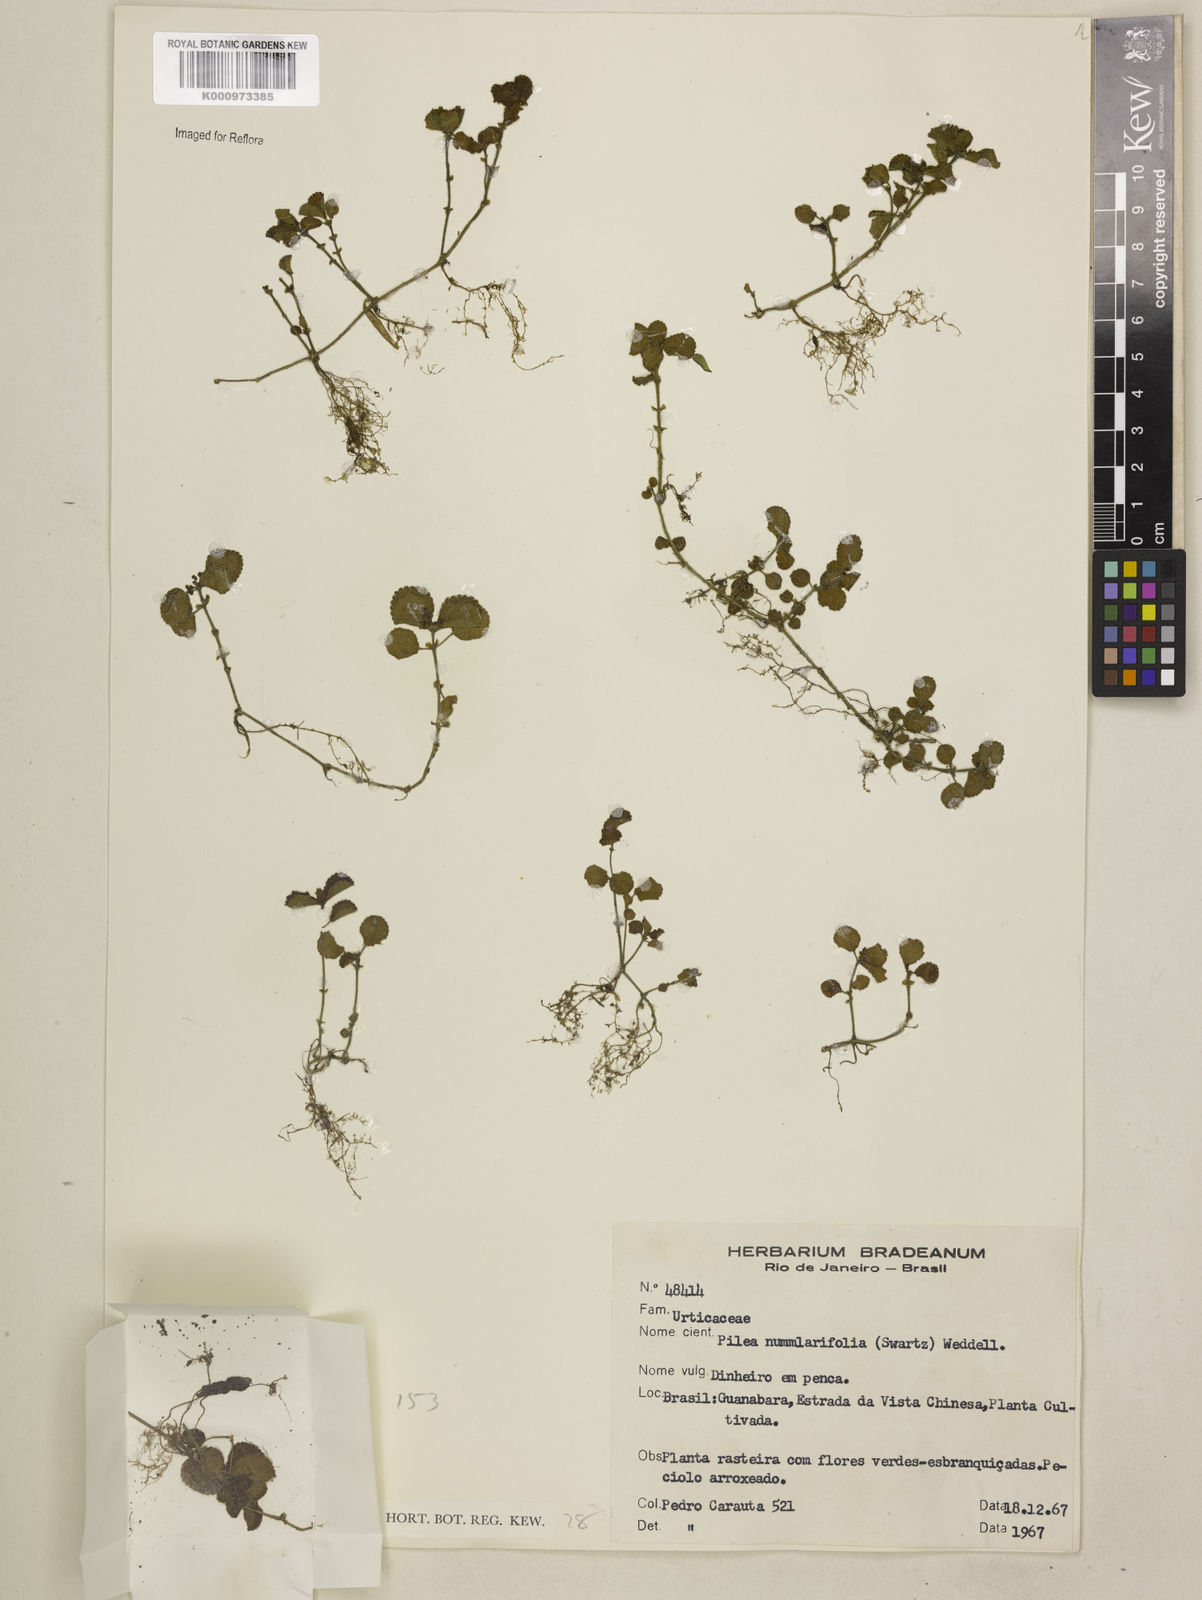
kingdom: Plantae
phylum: Tracheophyta
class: Magnoliopsida
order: Rosales
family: Urticaceae
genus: Pilea
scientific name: Pilea nummulariifolia
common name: Creeping-charlie
